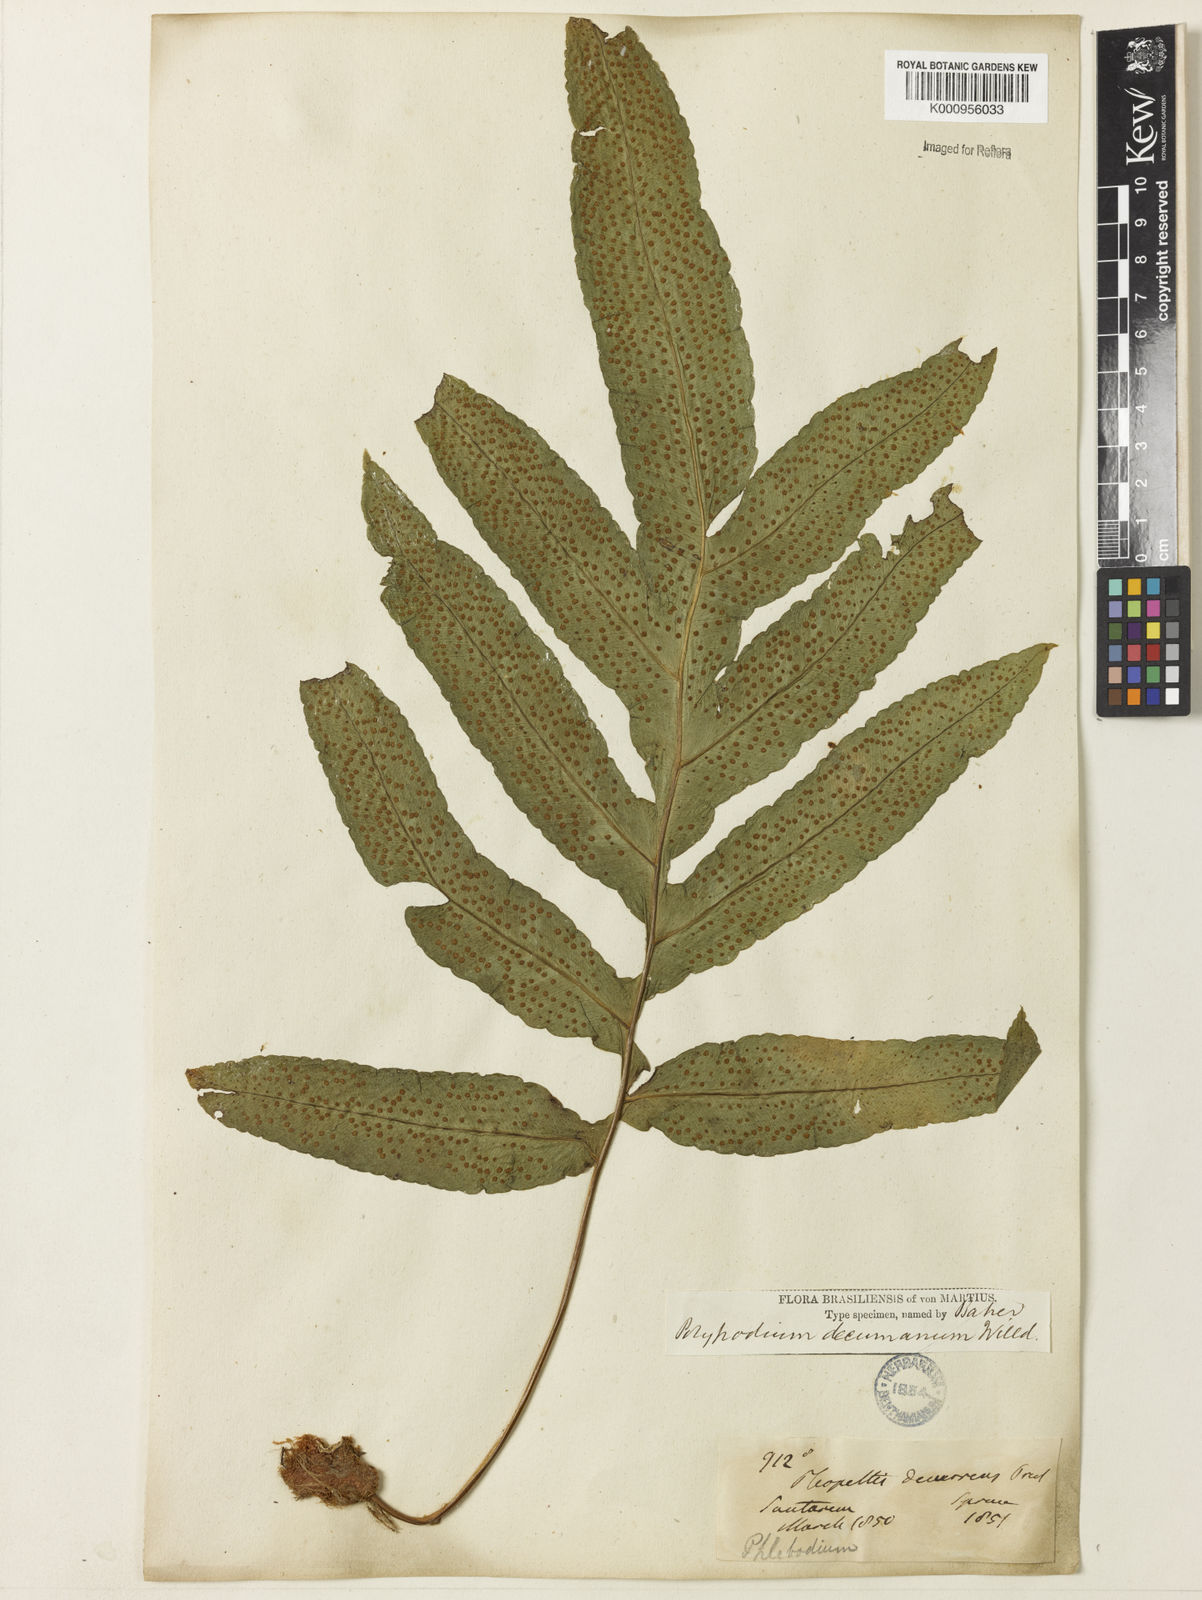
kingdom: Plantae
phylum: Tracheophyta
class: Polypodiopsida
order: Polypodiales
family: Polypodiaceae
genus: Phlebodium
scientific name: Phlebodium decumanum
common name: Golden polypod
